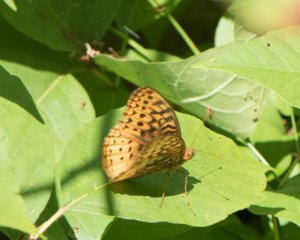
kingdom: Animalia
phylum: Arthropoda
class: Insecta
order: Lepidoptera
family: Nymphalidae
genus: Speyeria
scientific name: Speyeria cybele
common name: Great Spangled Fritillary
